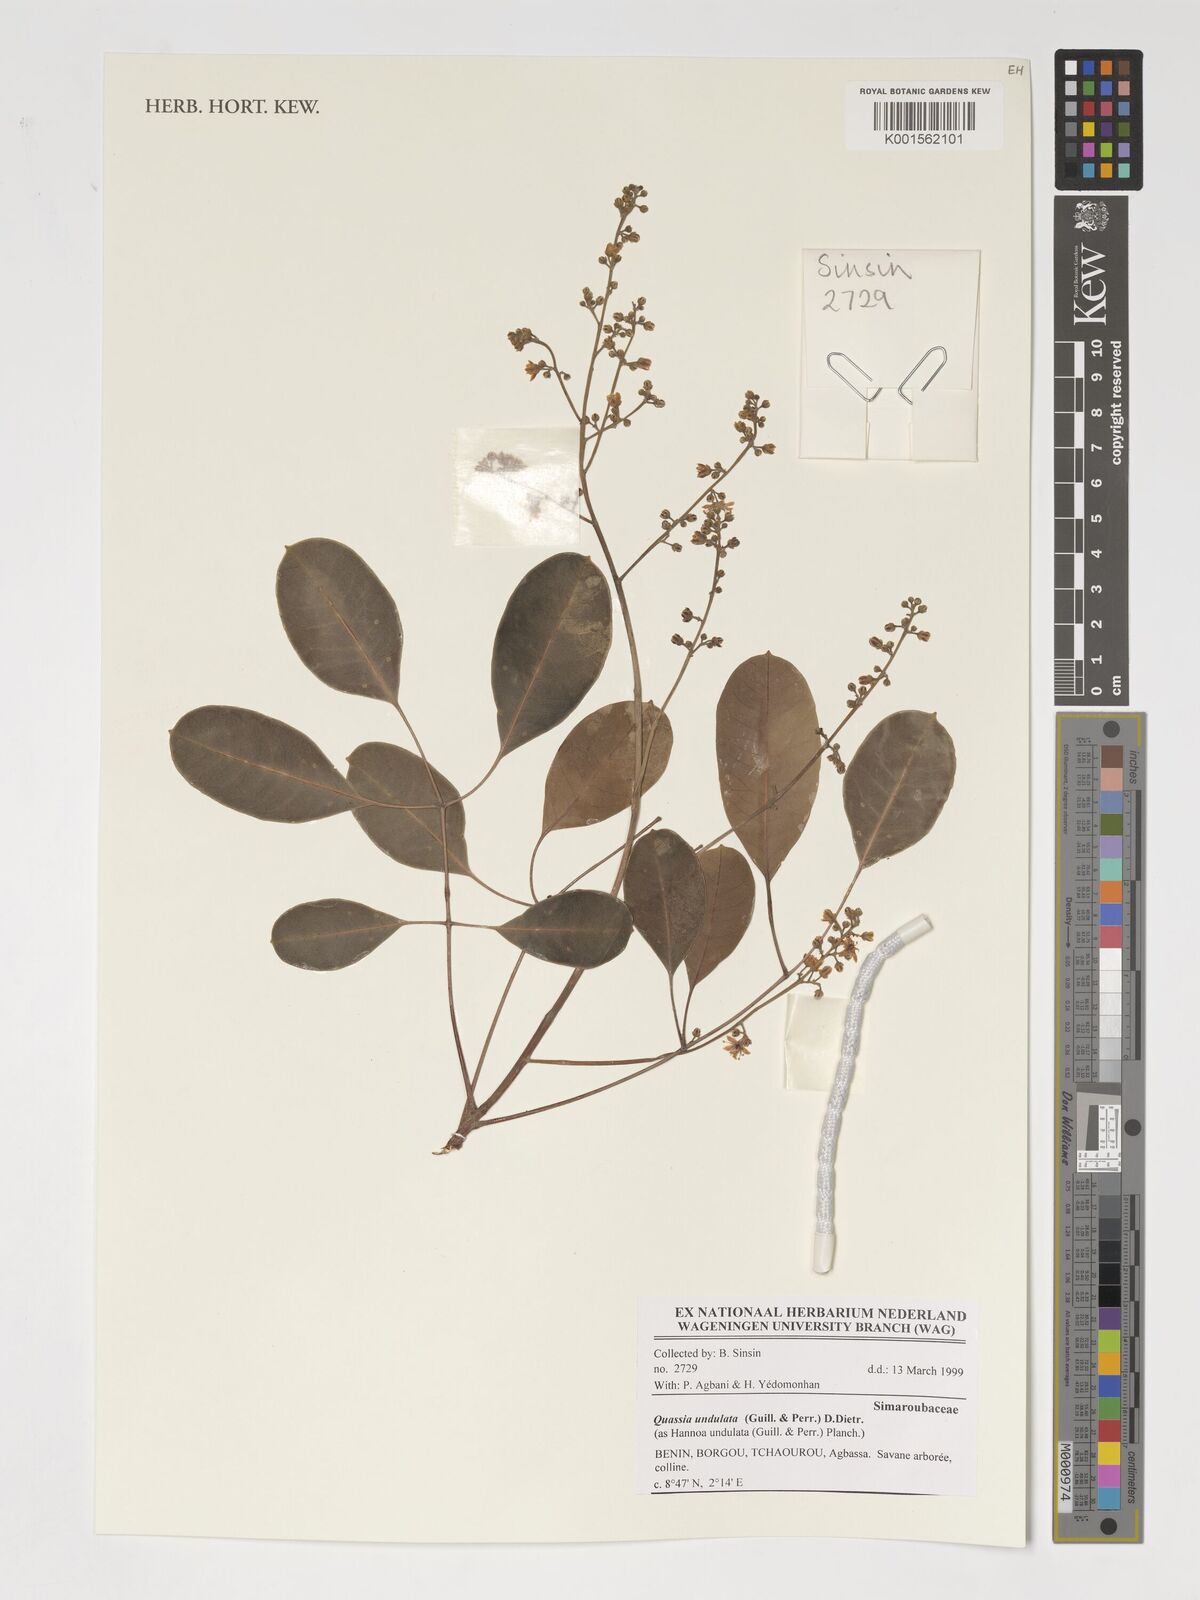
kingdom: Plantae
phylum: Tracheophyta
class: Magnoliopsida
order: Sapindales
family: Simaroubaceae
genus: Odyendyea
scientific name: Odyendyea klaineana
